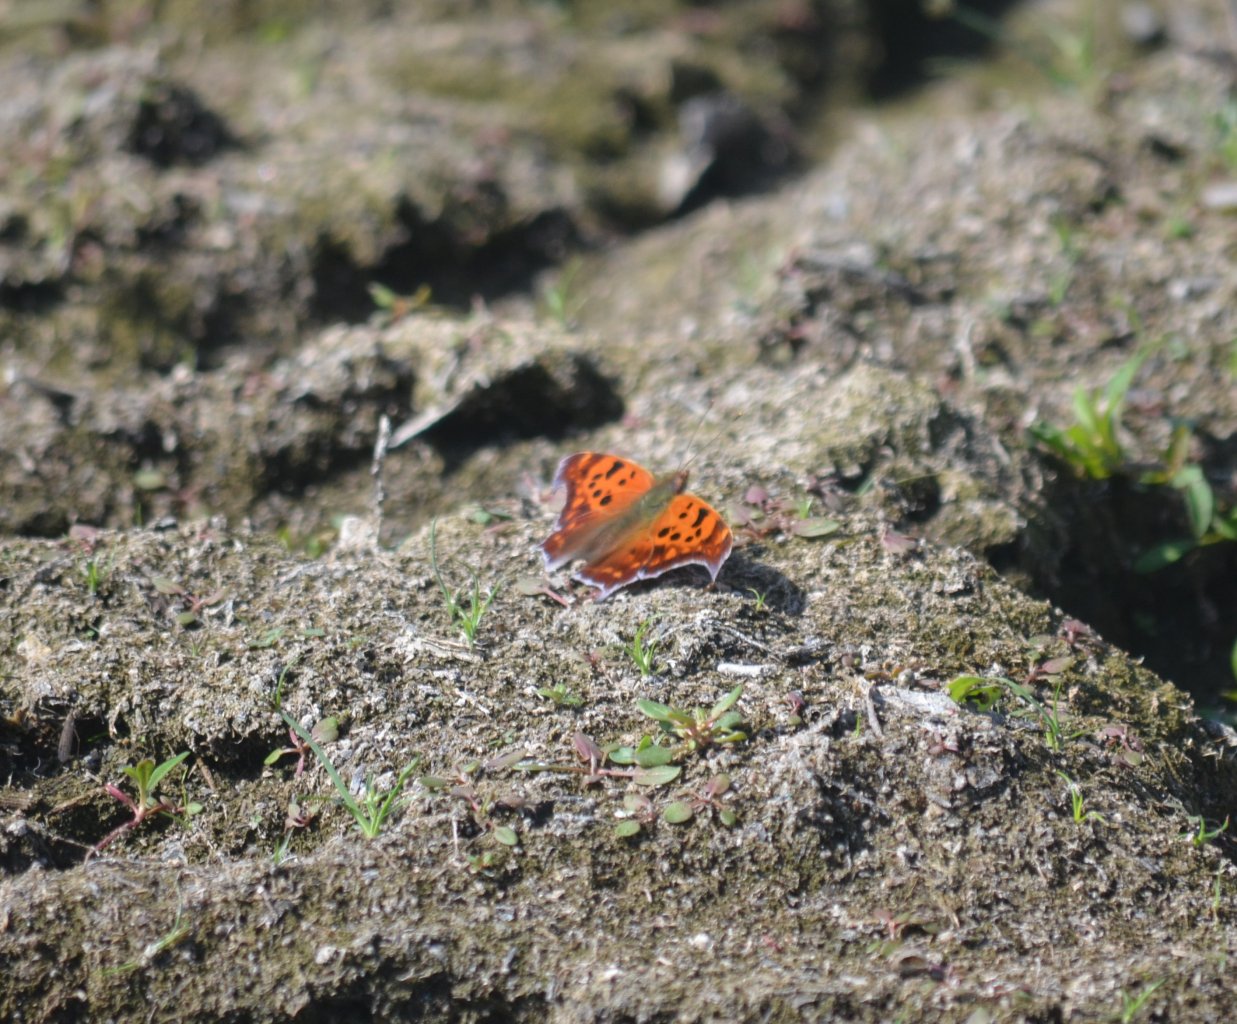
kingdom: Animalia
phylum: Arthropoda
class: Insecta
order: Lepidoptera
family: Nymphalidae
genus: Polygonia
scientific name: Polygonia interrogationis
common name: Question Mark
